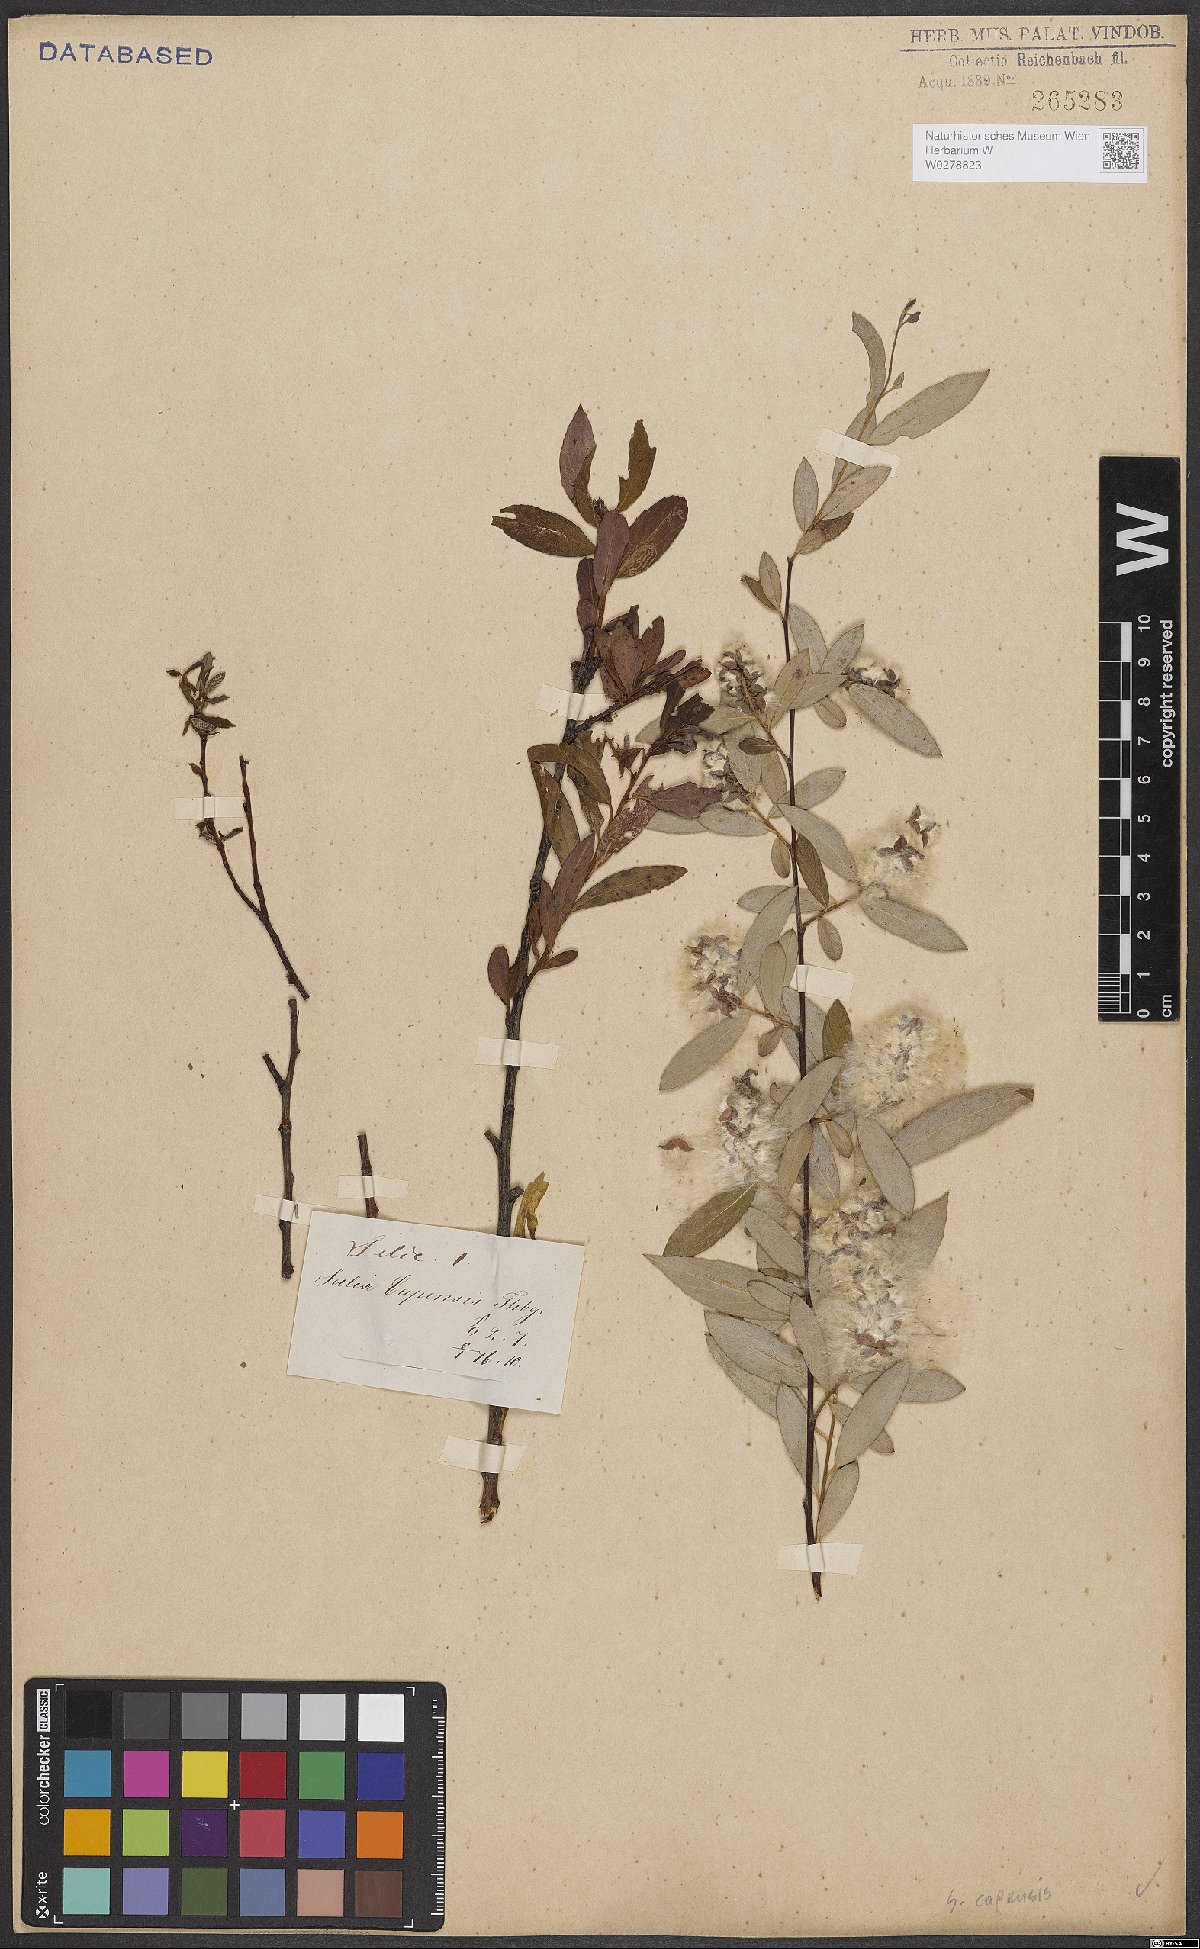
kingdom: Plantae
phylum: Tracheophyta
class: Magnoliopsida
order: Malpighiales
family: Salicaceae
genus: Salix
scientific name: Salix mucronata
